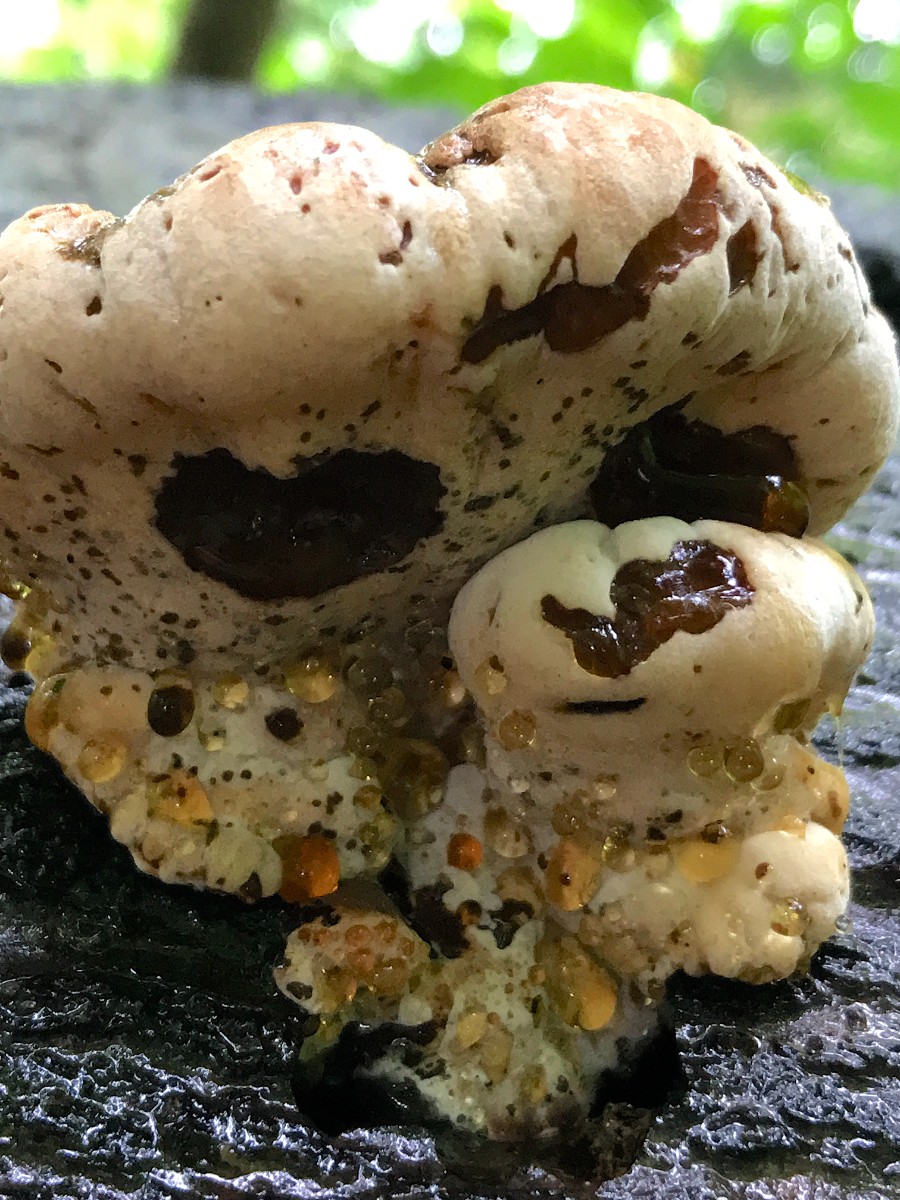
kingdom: Fungi
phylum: Basidiomycota
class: Agaricomycetes
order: Polyporales
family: Ischnodermataceae
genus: Ischnoderma
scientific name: Ischnoderma resinosum
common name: løv-tjæreporesvamp
